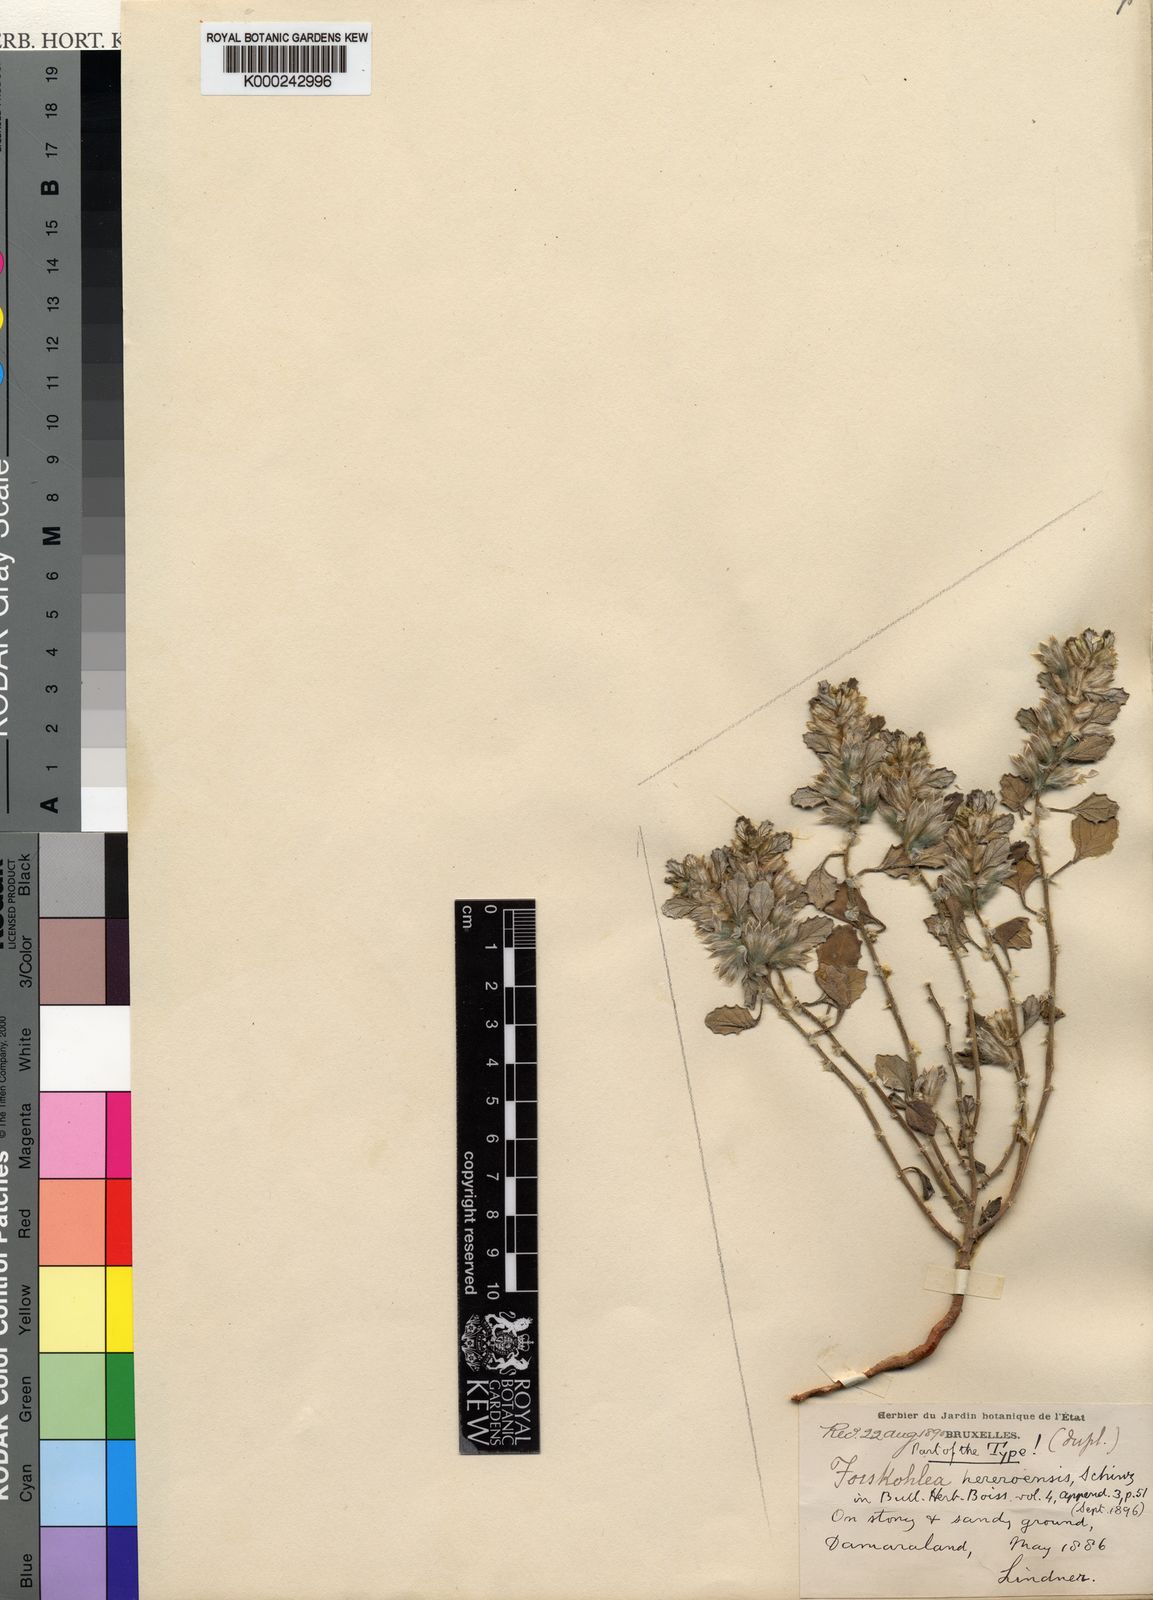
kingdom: Plantae
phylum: Tracheophyta
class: Magnoliopsida
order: Rosales
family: Urticaceae
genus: Forsskaolea
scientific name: Forsskaolea hereroensis
